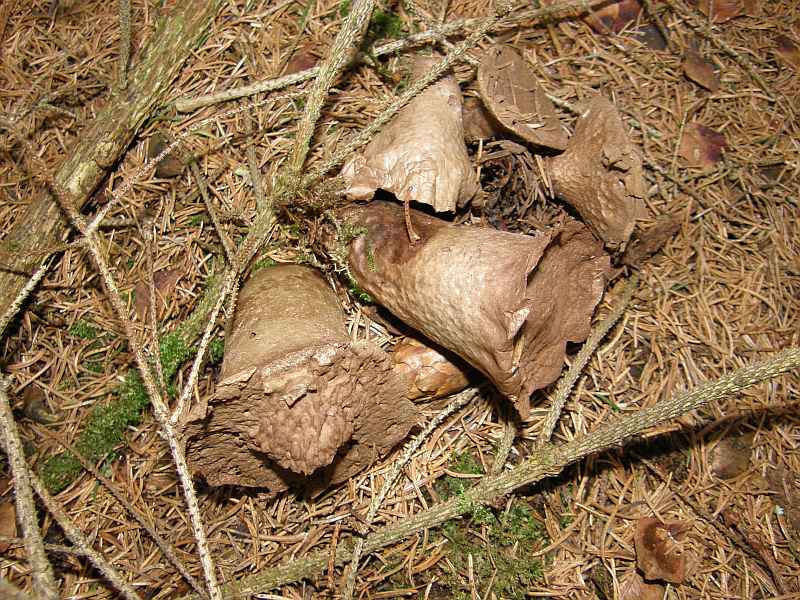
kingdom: Fungi
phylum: Basidiomycota
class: Agaricomycetes
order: Agaricales
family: Agaricaceae
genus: Lycoperdon
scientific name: Lycoperdon
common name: støvbold
